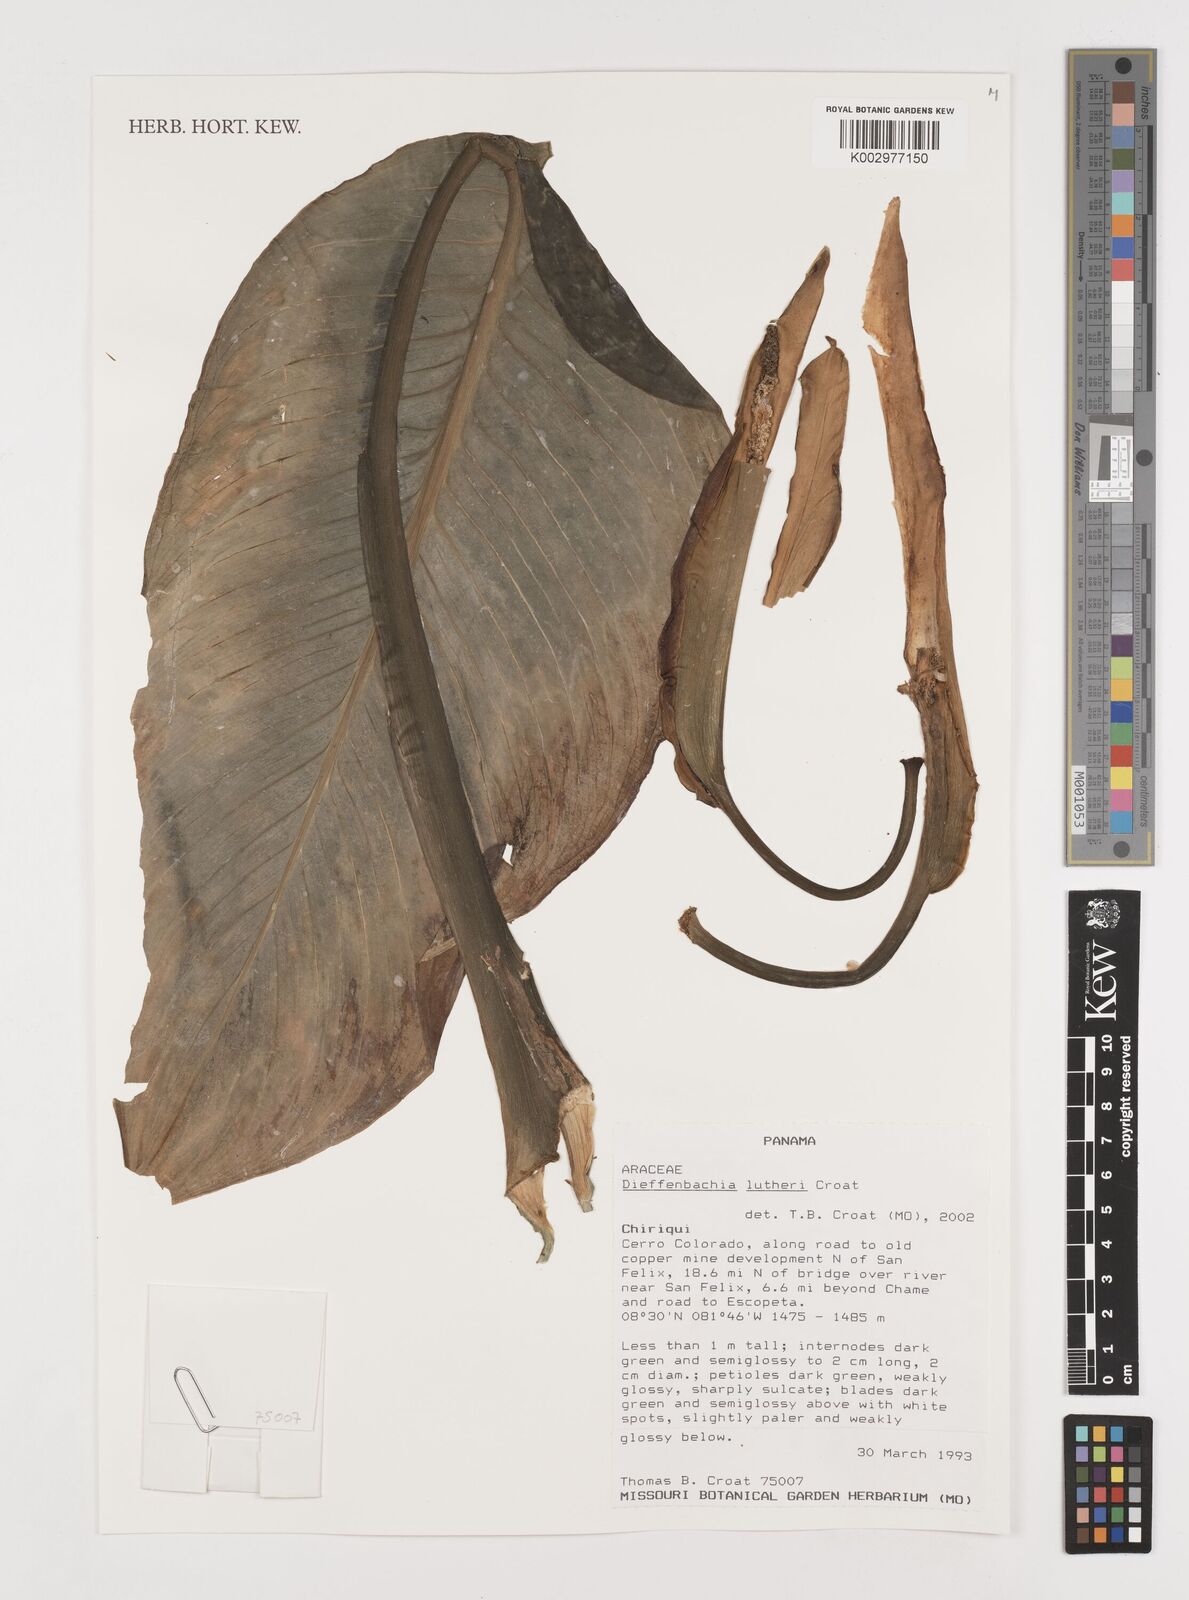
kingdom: Plantae
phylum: Tracheophyta
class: Liliopsida
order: Alismatales
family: Araceae
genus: Dieffenbachia
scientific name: Dieffenbachia lutheri
